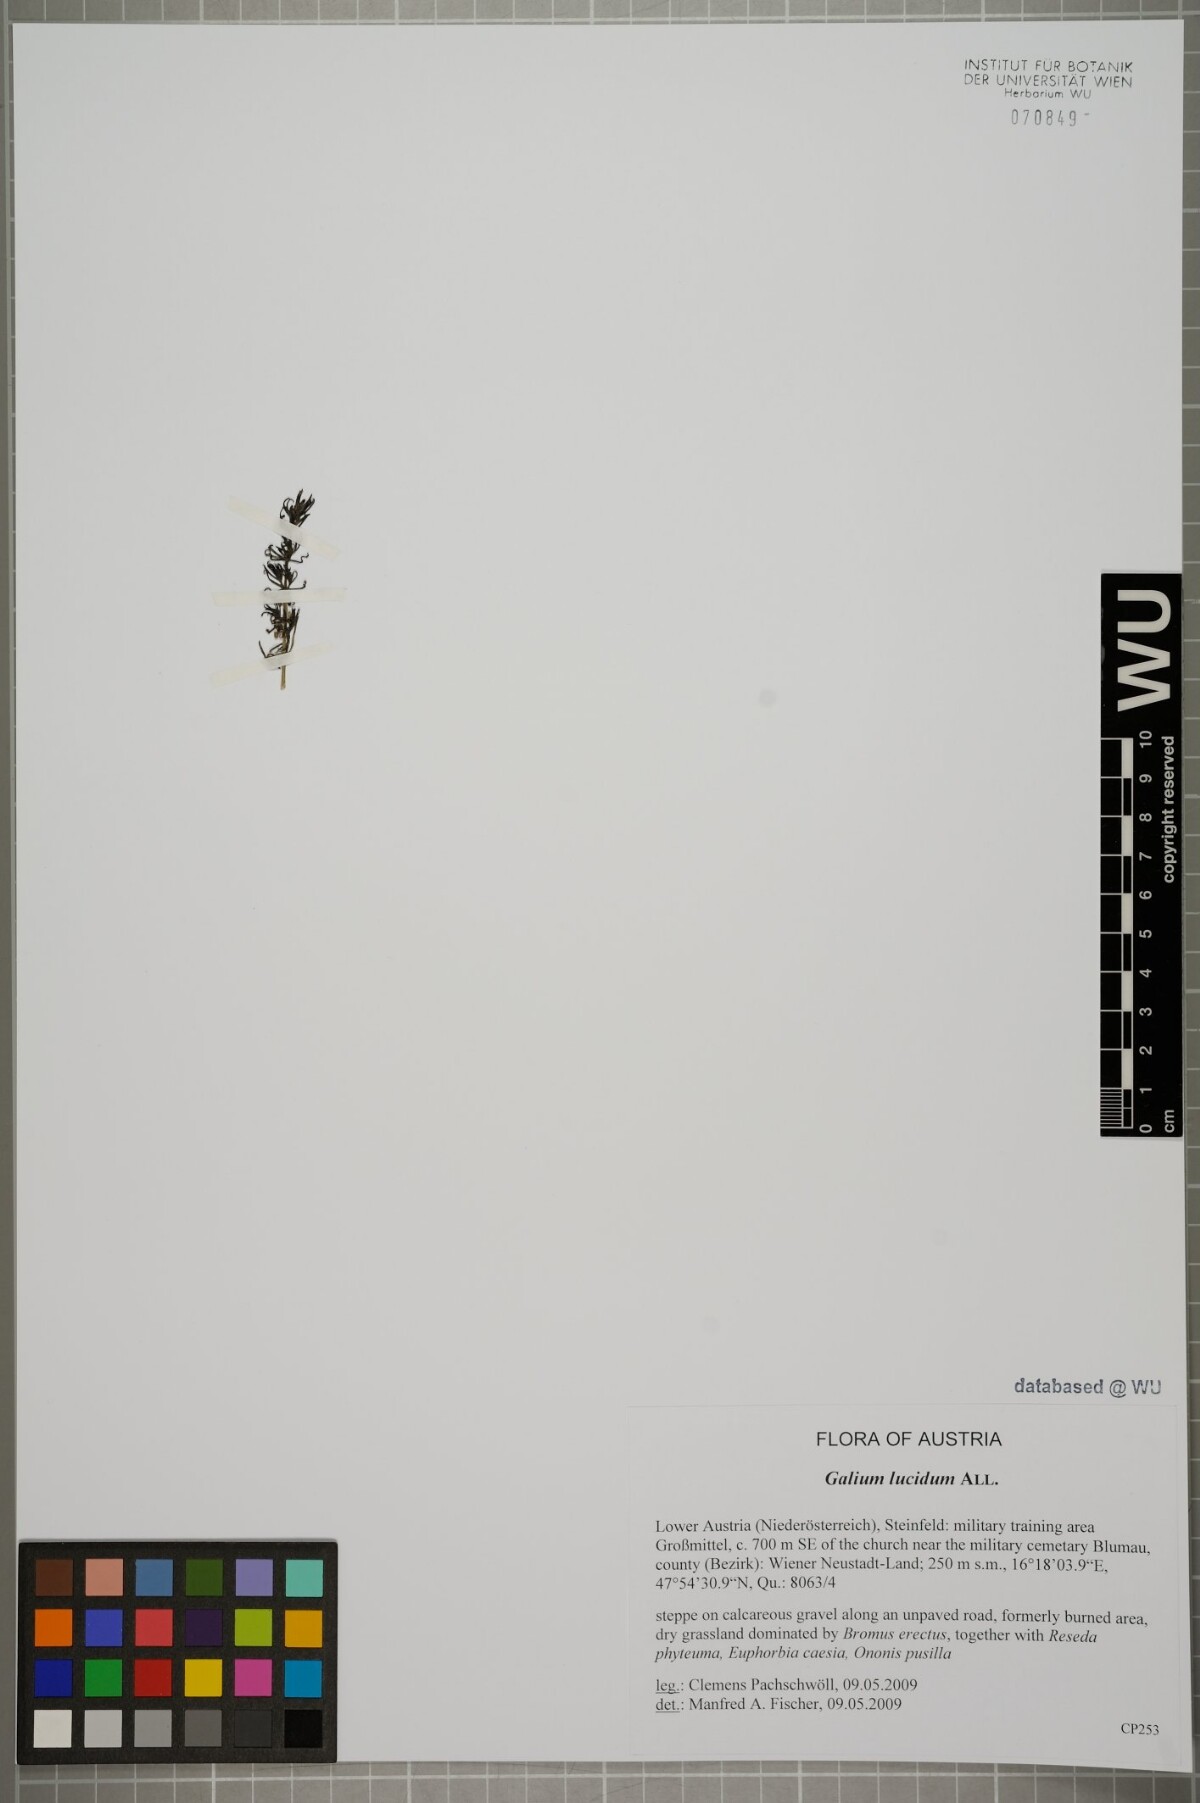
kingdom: Plantae
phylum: Tracheophyta
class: Magnoliopsida
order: Gentianales
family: Rubiaceae
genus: Galium
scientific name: Galium lucidum
